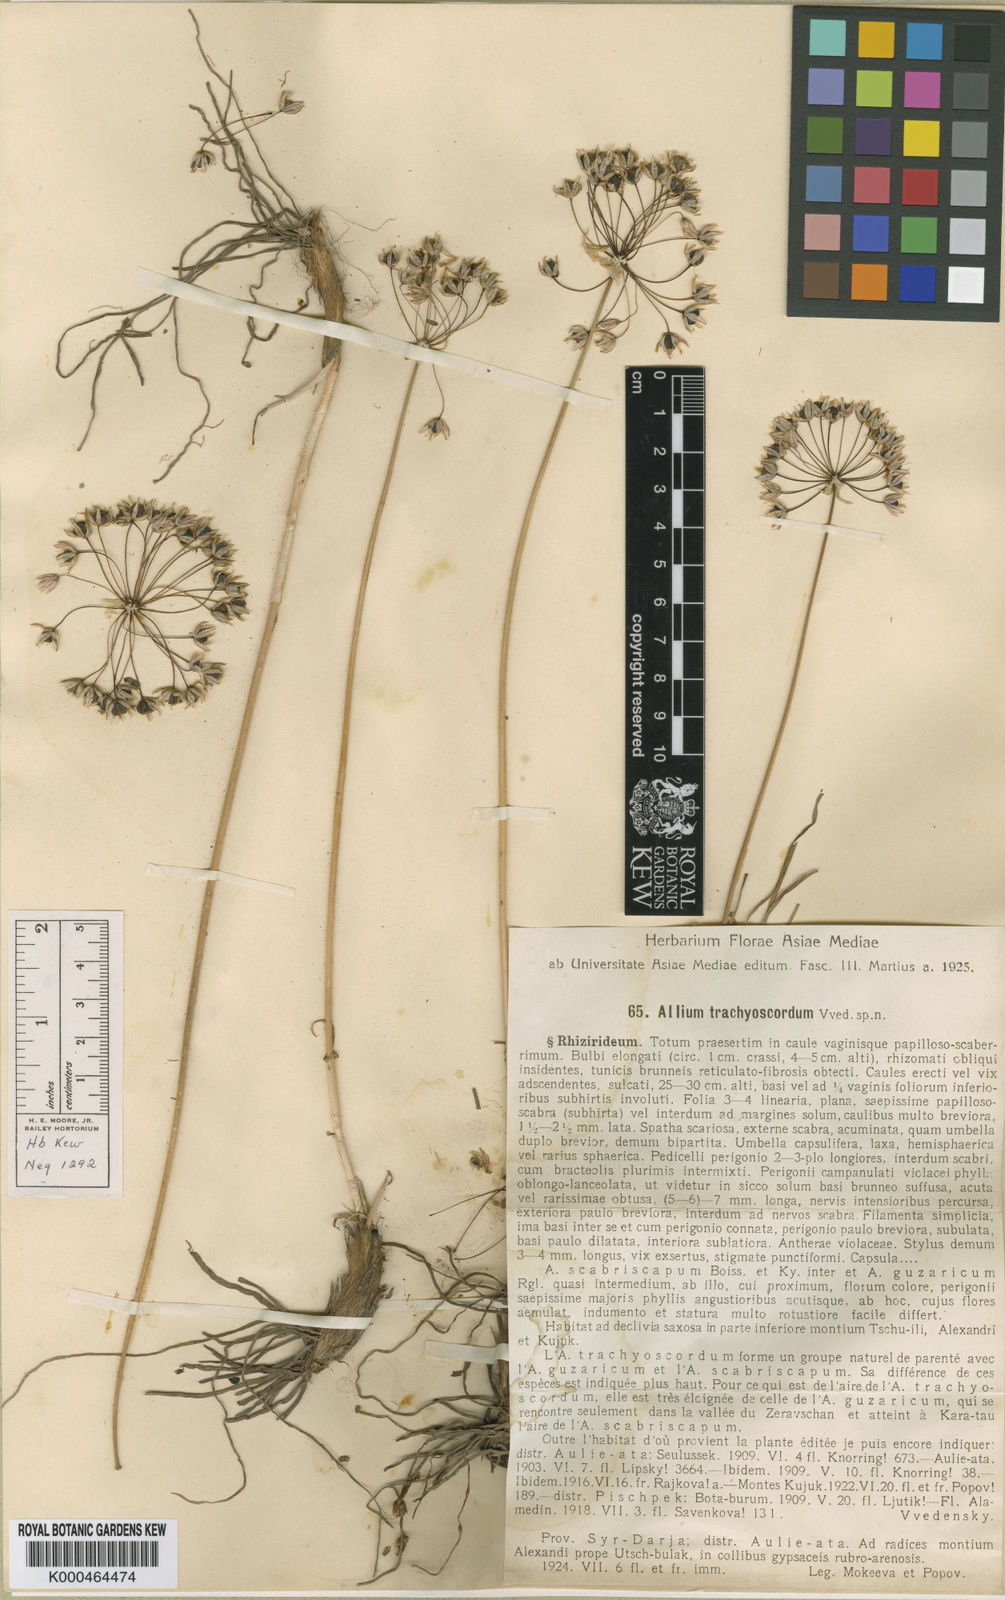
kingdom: Plantae
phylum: Tracheophyta
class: Liliopsida
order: Asparagales
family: Amaryllidaceae
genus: Allium
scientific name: Allium
